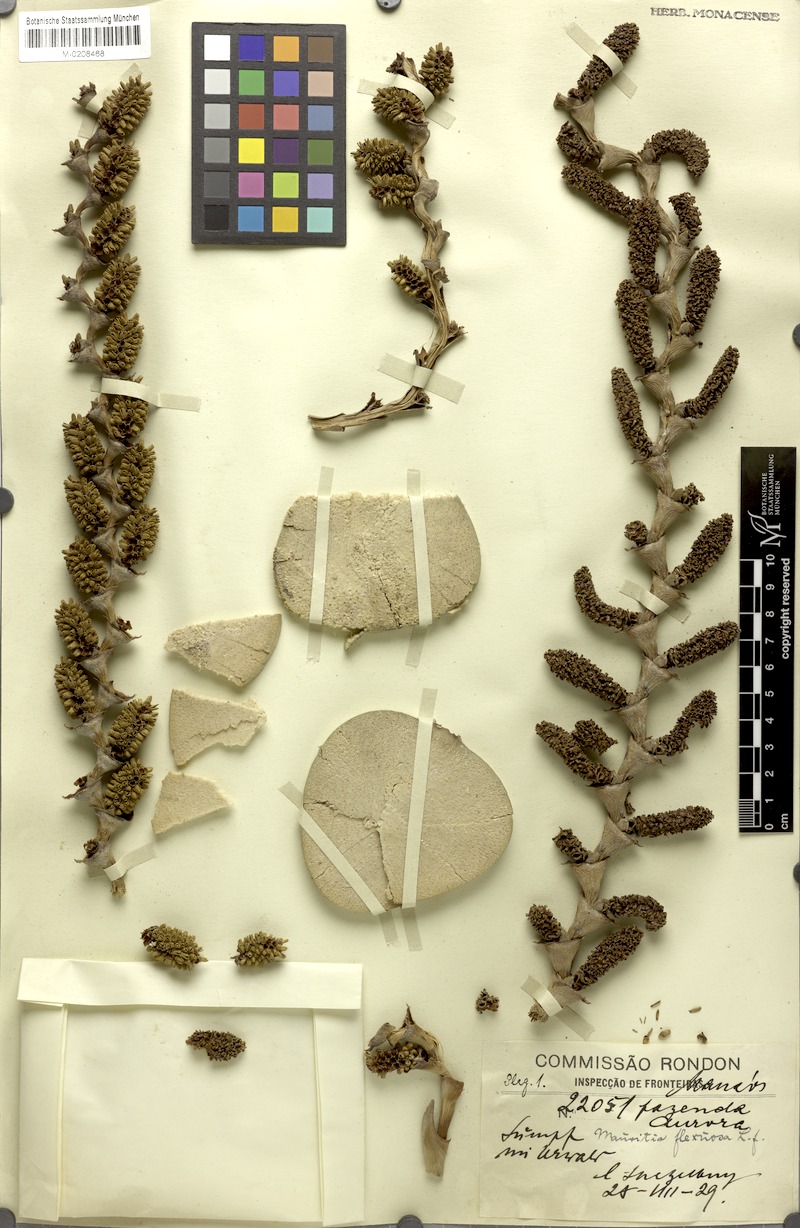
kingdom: Plantae
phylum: Tracheophyta
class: Liliopsida
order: Arecales
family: Arecaceae
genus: Mauritia
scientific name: Mauritia flexuosa
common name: Tree-of-life
